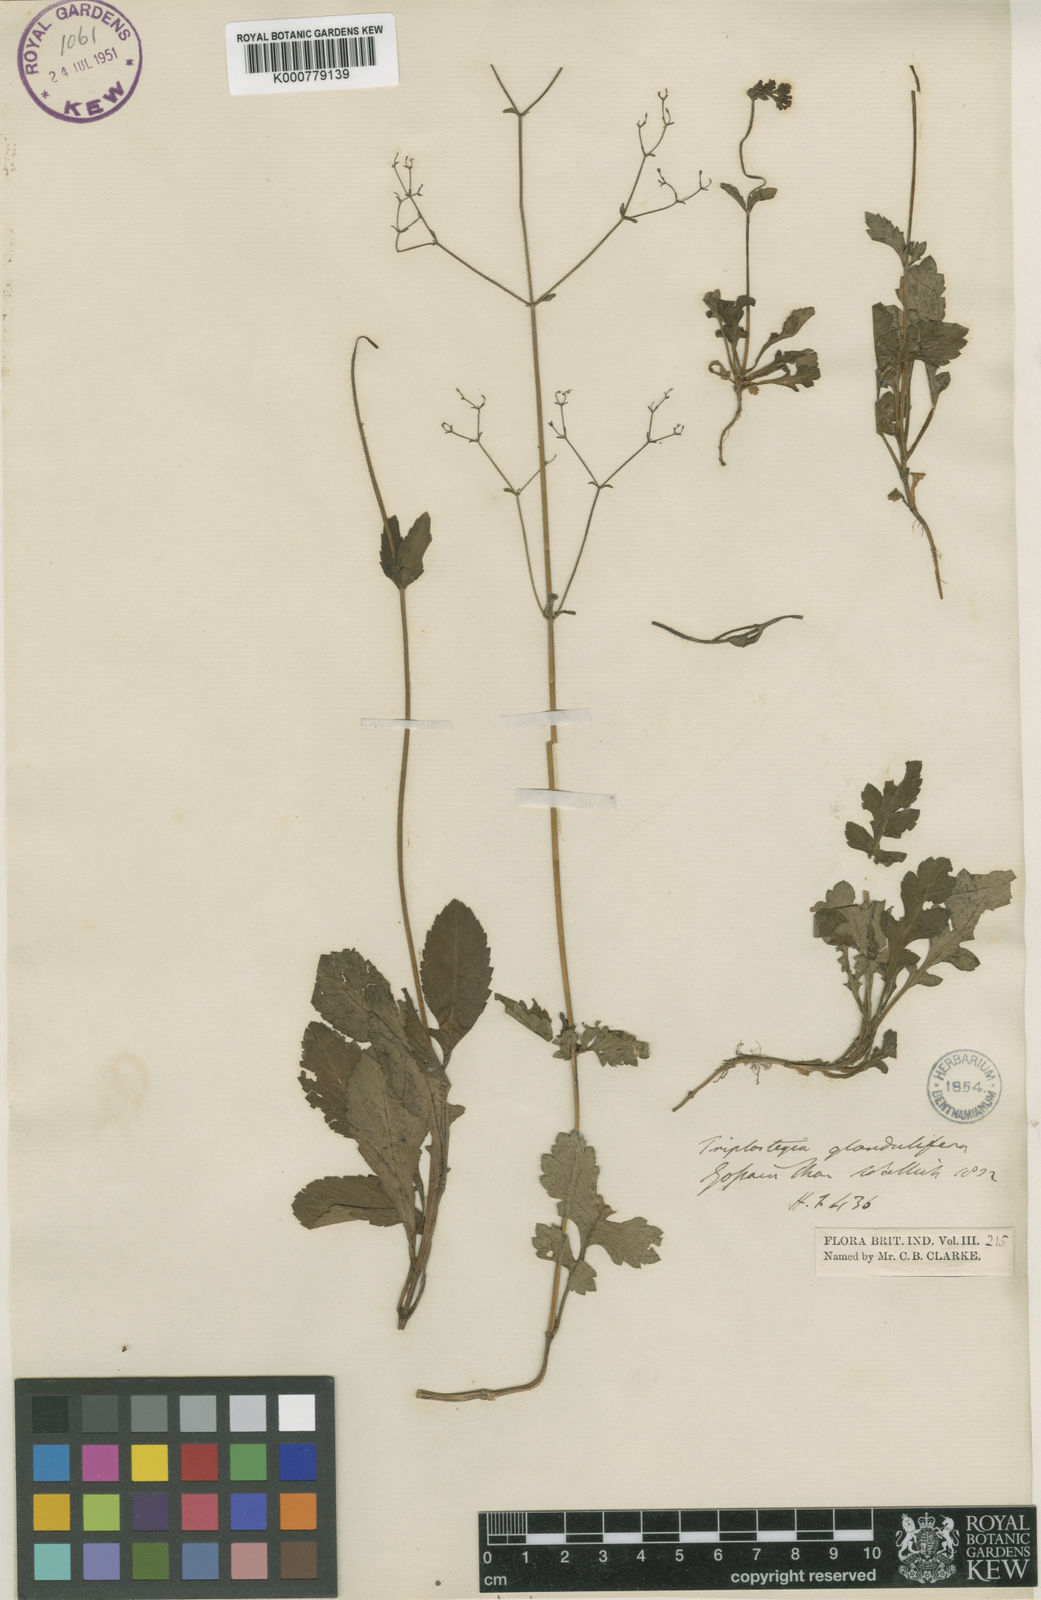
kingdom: Plantae
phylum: Tracheophyta
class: Magnoliopsida
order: Dipsacales
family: Caprifoliaceae
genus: Triplostegia
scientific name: Triplostegia glandulifera
